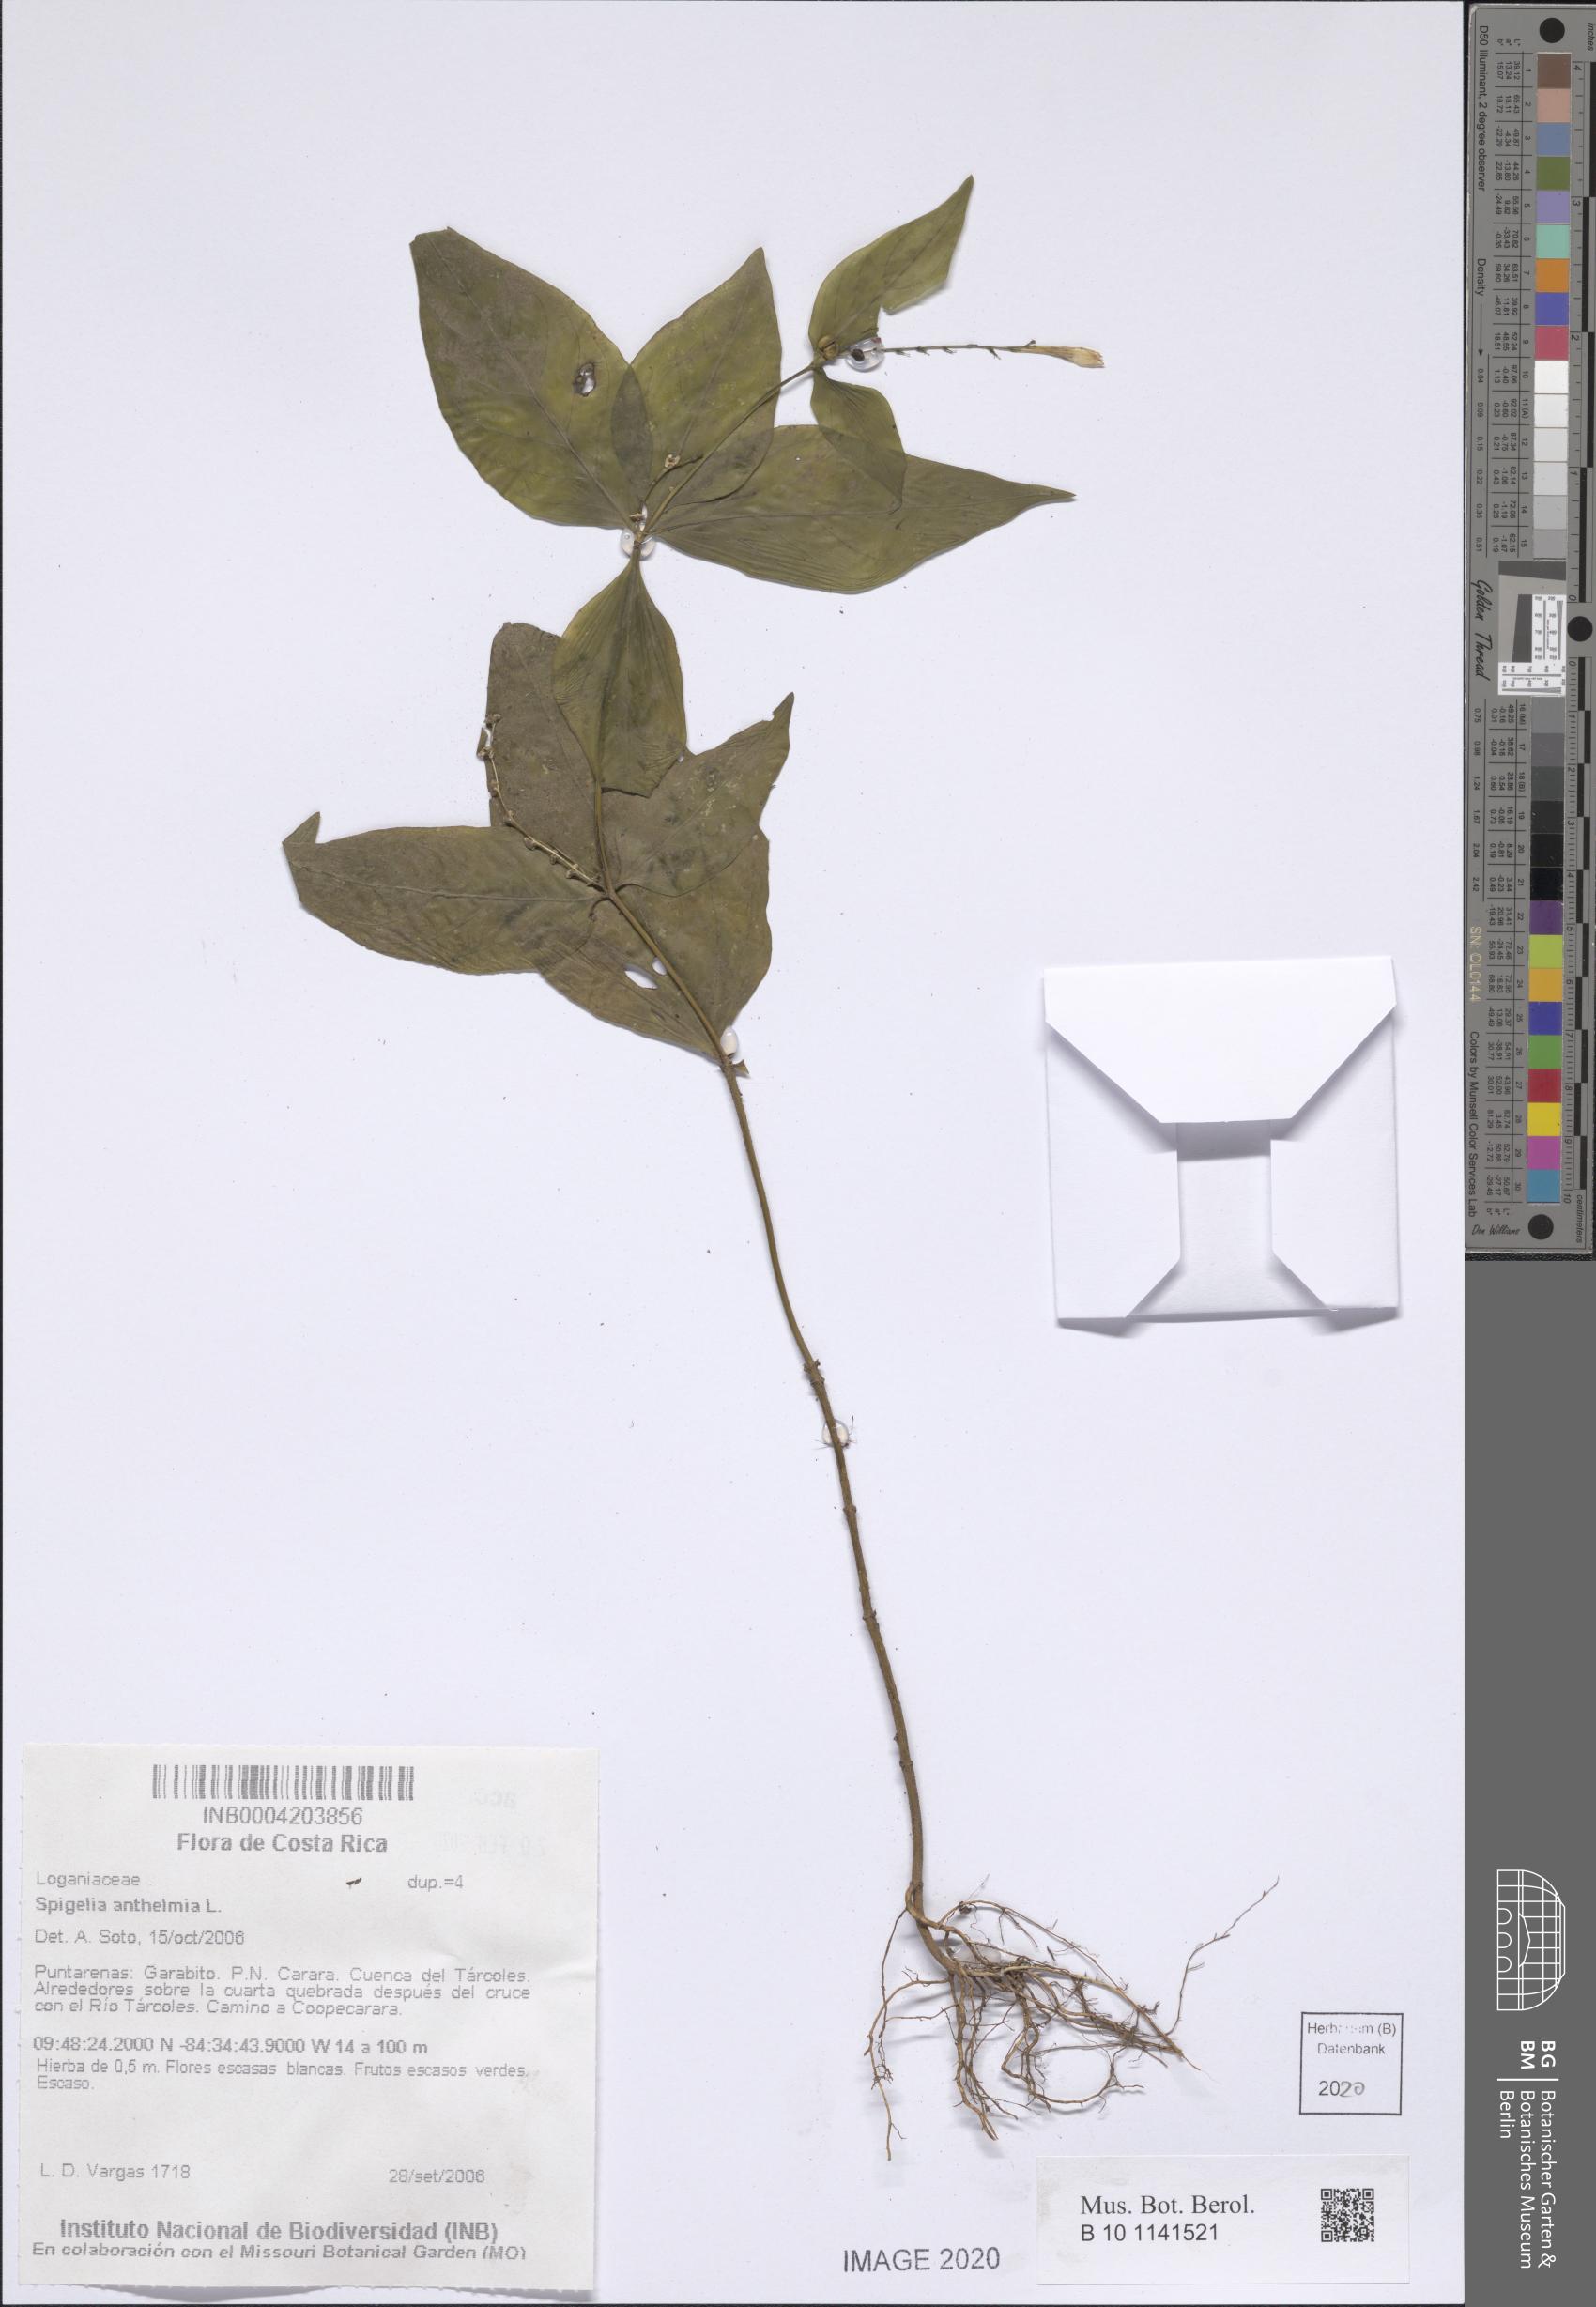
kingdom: Plantae
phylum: Tracheophyta
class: Magnoliopsida
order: Gentianales
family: Loganiaceae
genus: Spigelia
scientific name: Spigelia anthelmia
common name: West indian-pink
